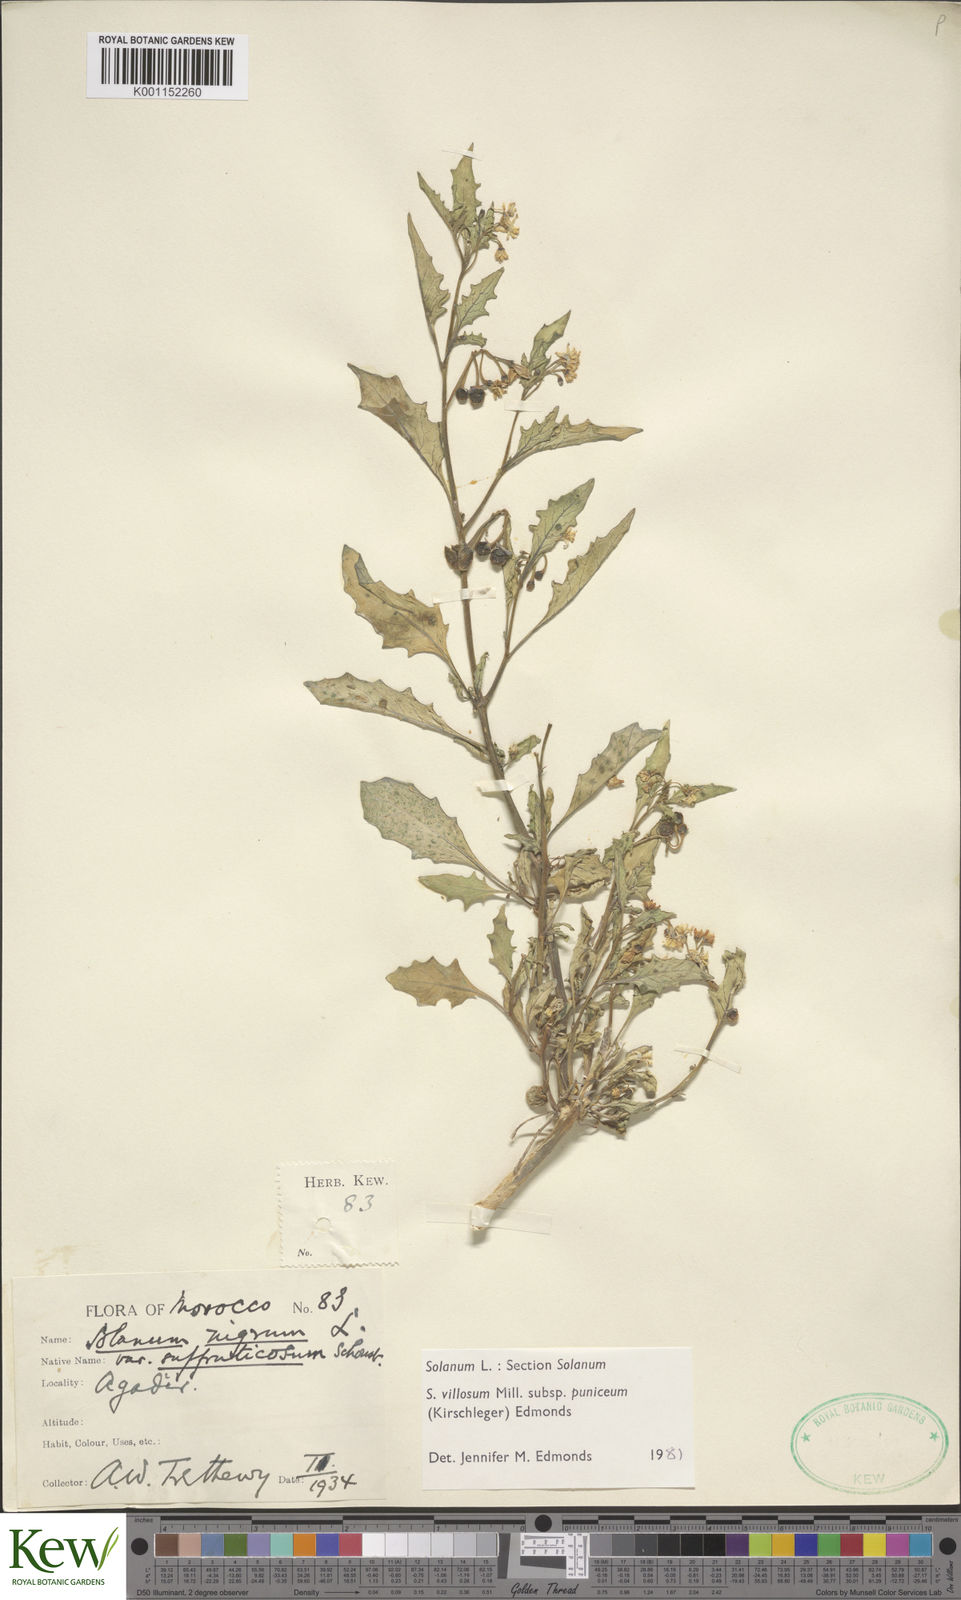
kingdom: Plantae
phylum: Tracheophyta
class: Magnoliopsida
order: Solanales
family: Solanaceae
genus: Solanum
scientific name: Solanum villosum
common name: Red nightshade
